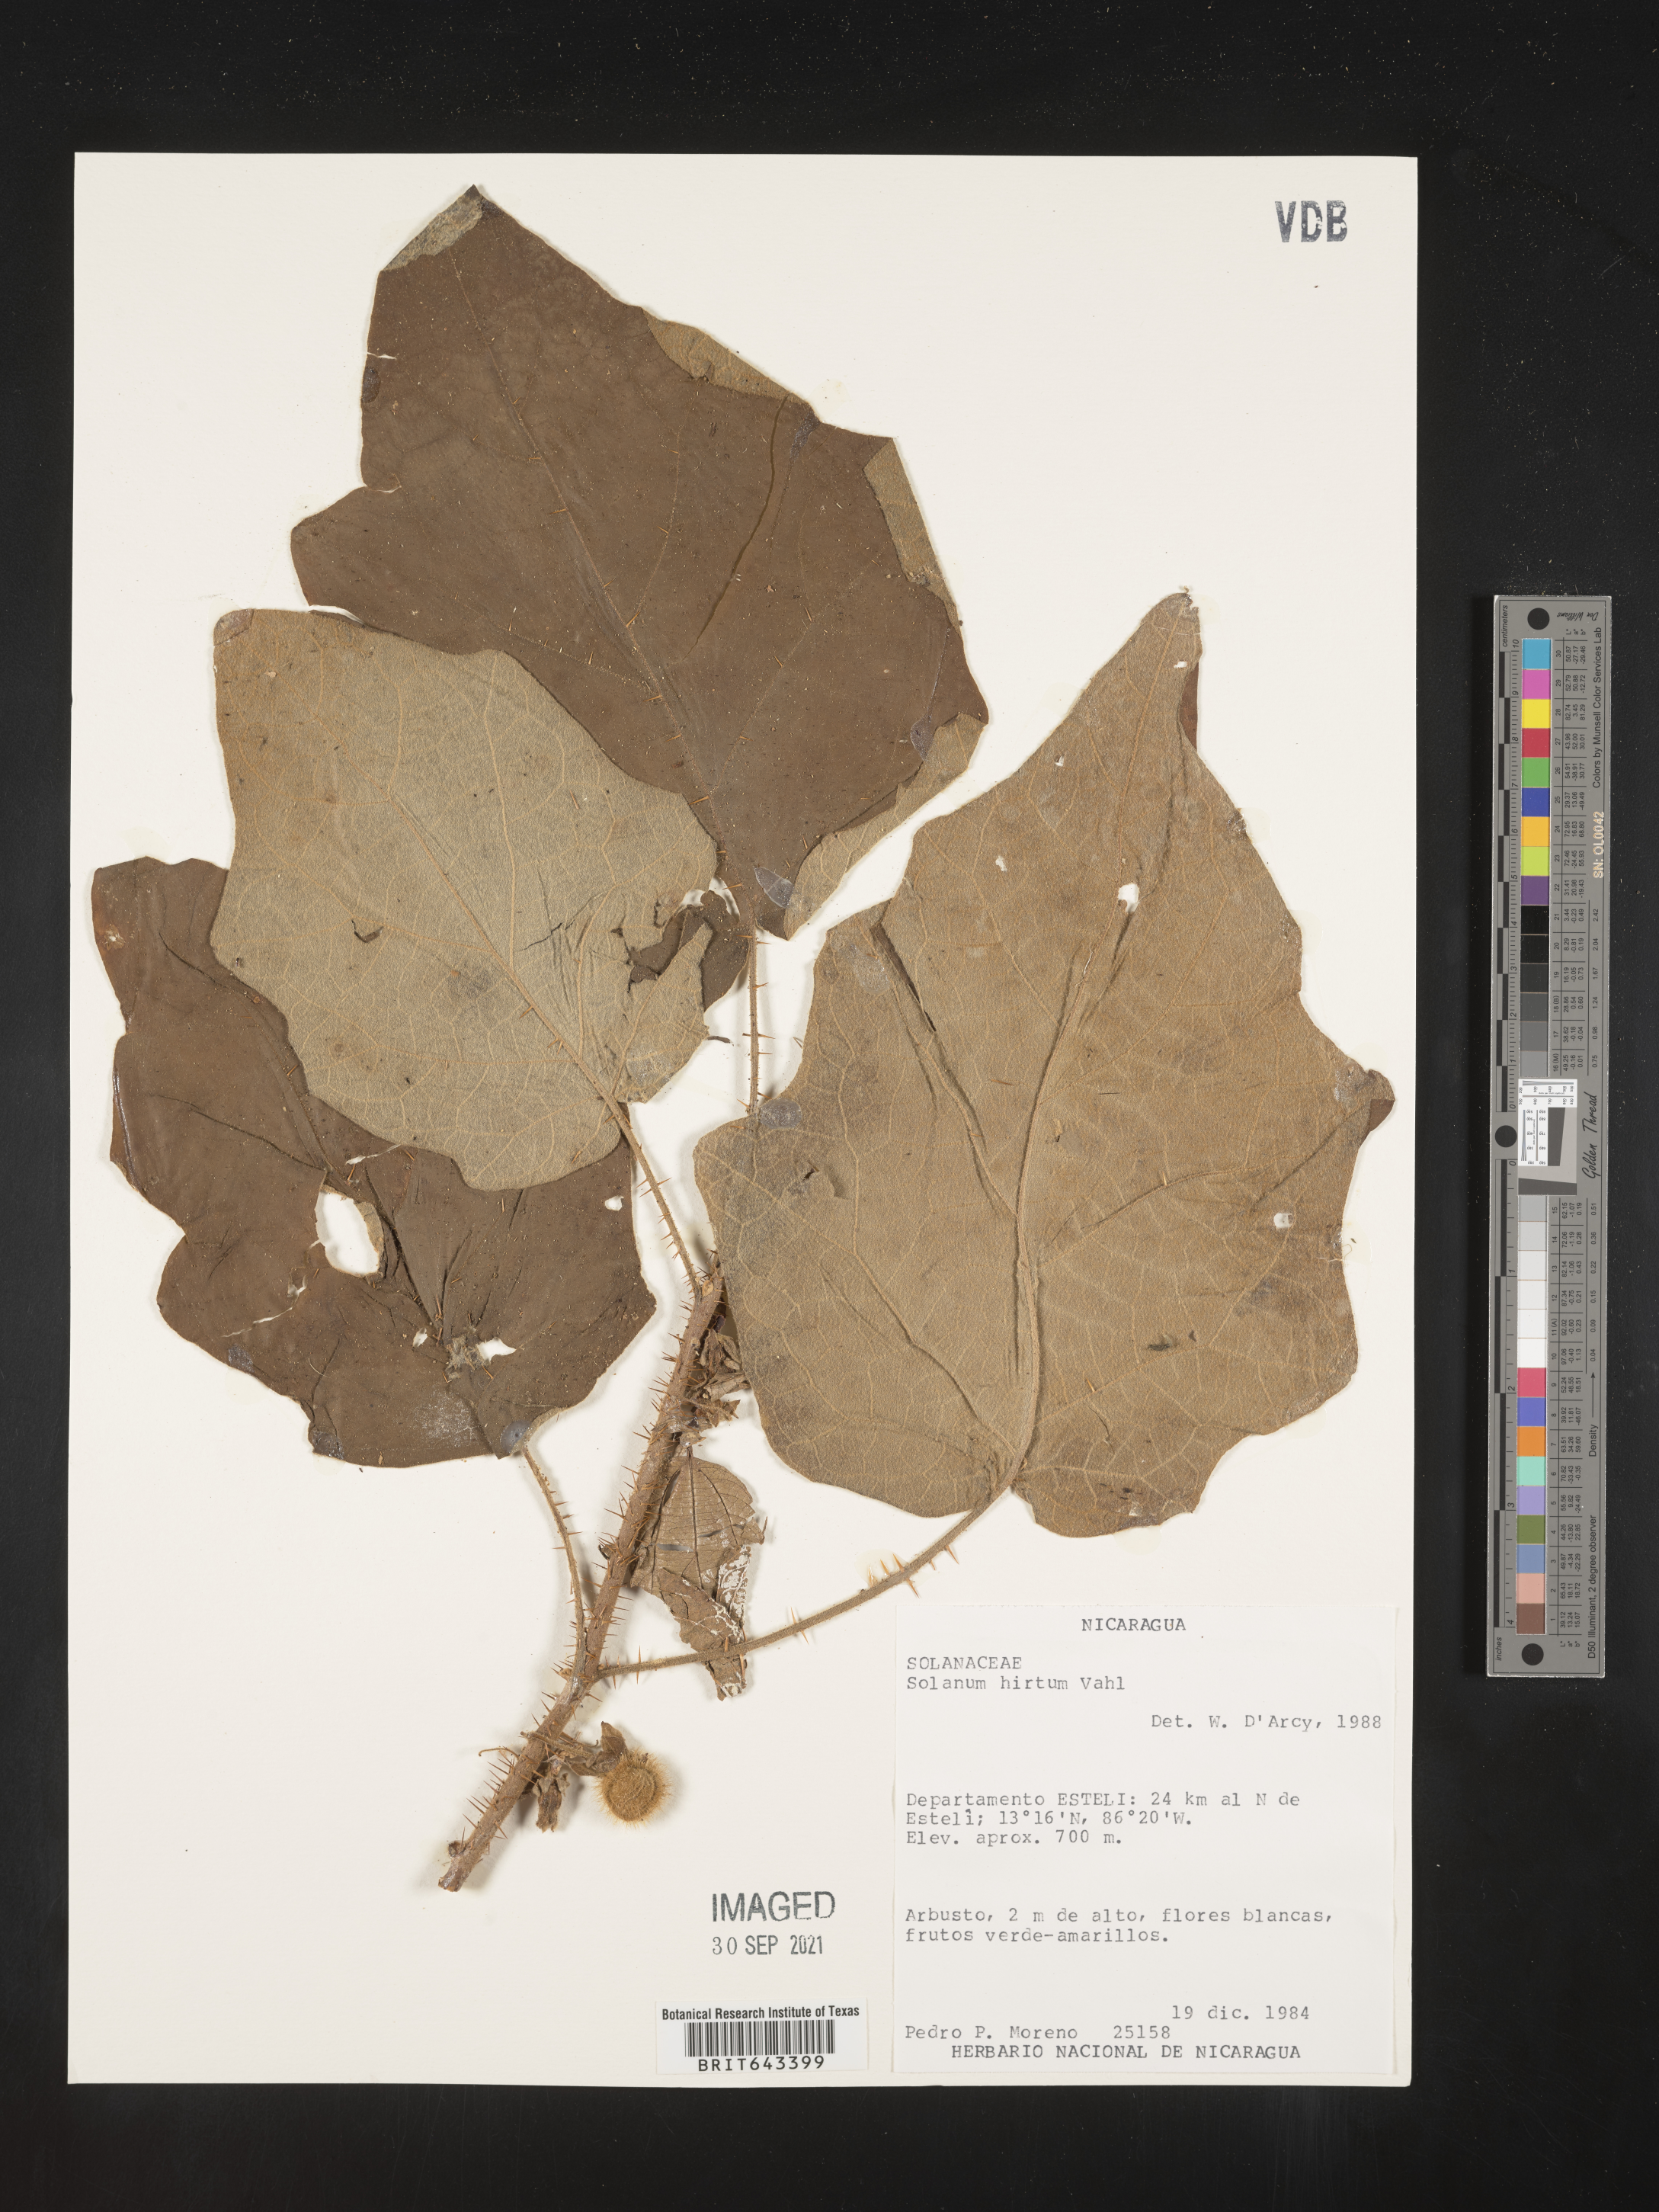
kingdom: Plantae
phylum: Tracheophyta
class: Magnoliopsida
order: Solanales
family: Solanaceae
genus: Solanum
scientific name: Solanum
